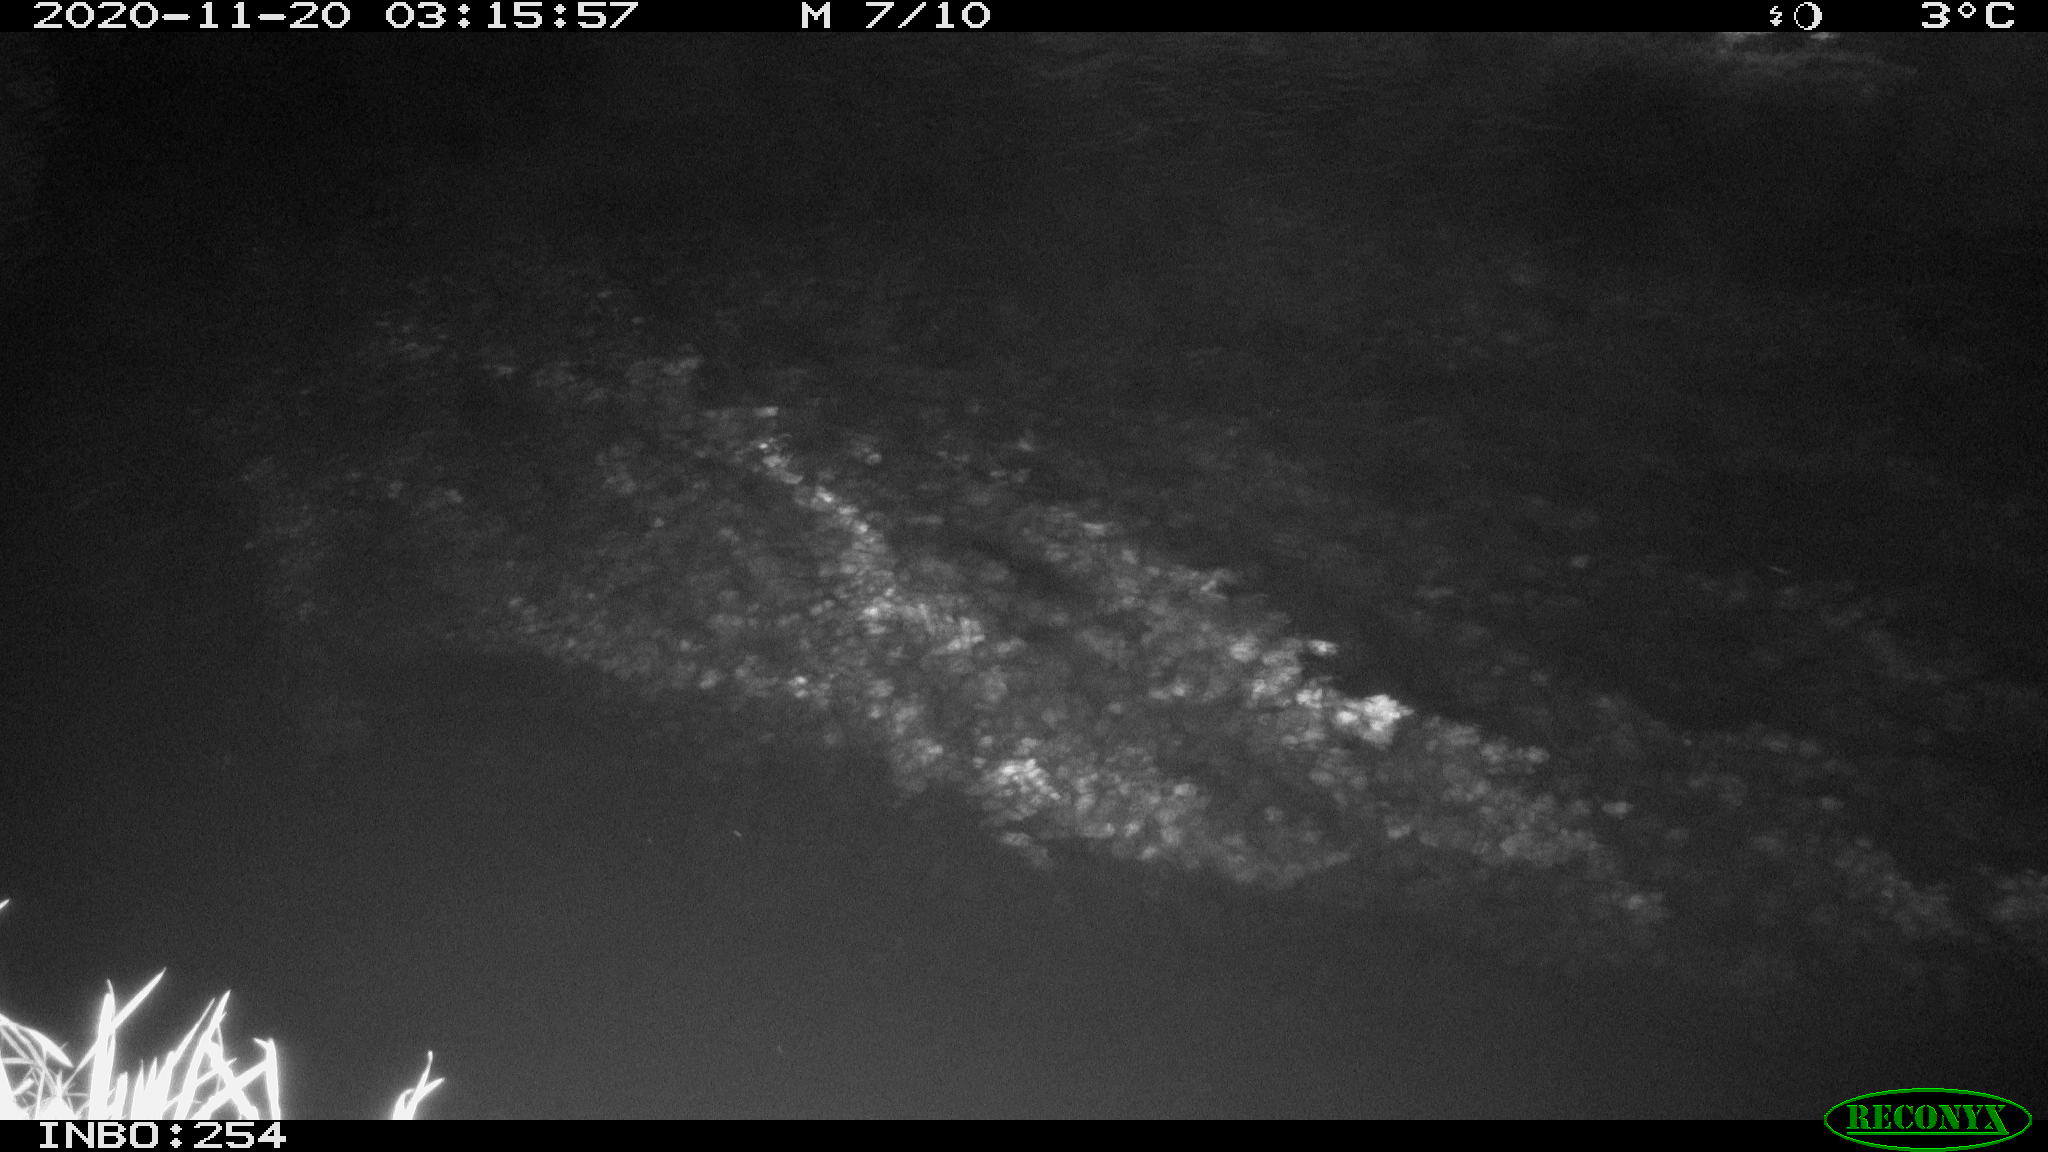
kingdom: Animalia
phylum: Chordata
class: Aves
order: Anseriformes
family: Anatidae
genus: Anas
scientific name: Anas platyrhynchos
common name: Mallard
